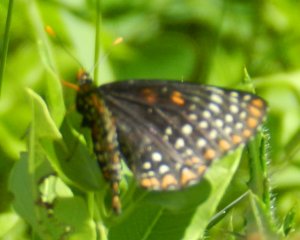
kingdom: Animalia
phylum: Arthropoda
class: Insecta
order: Lepidoptera
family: Nymphalidae
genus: Euphydryas
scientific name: Euphydryas phaeton
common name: Baltimore Checkerspot
